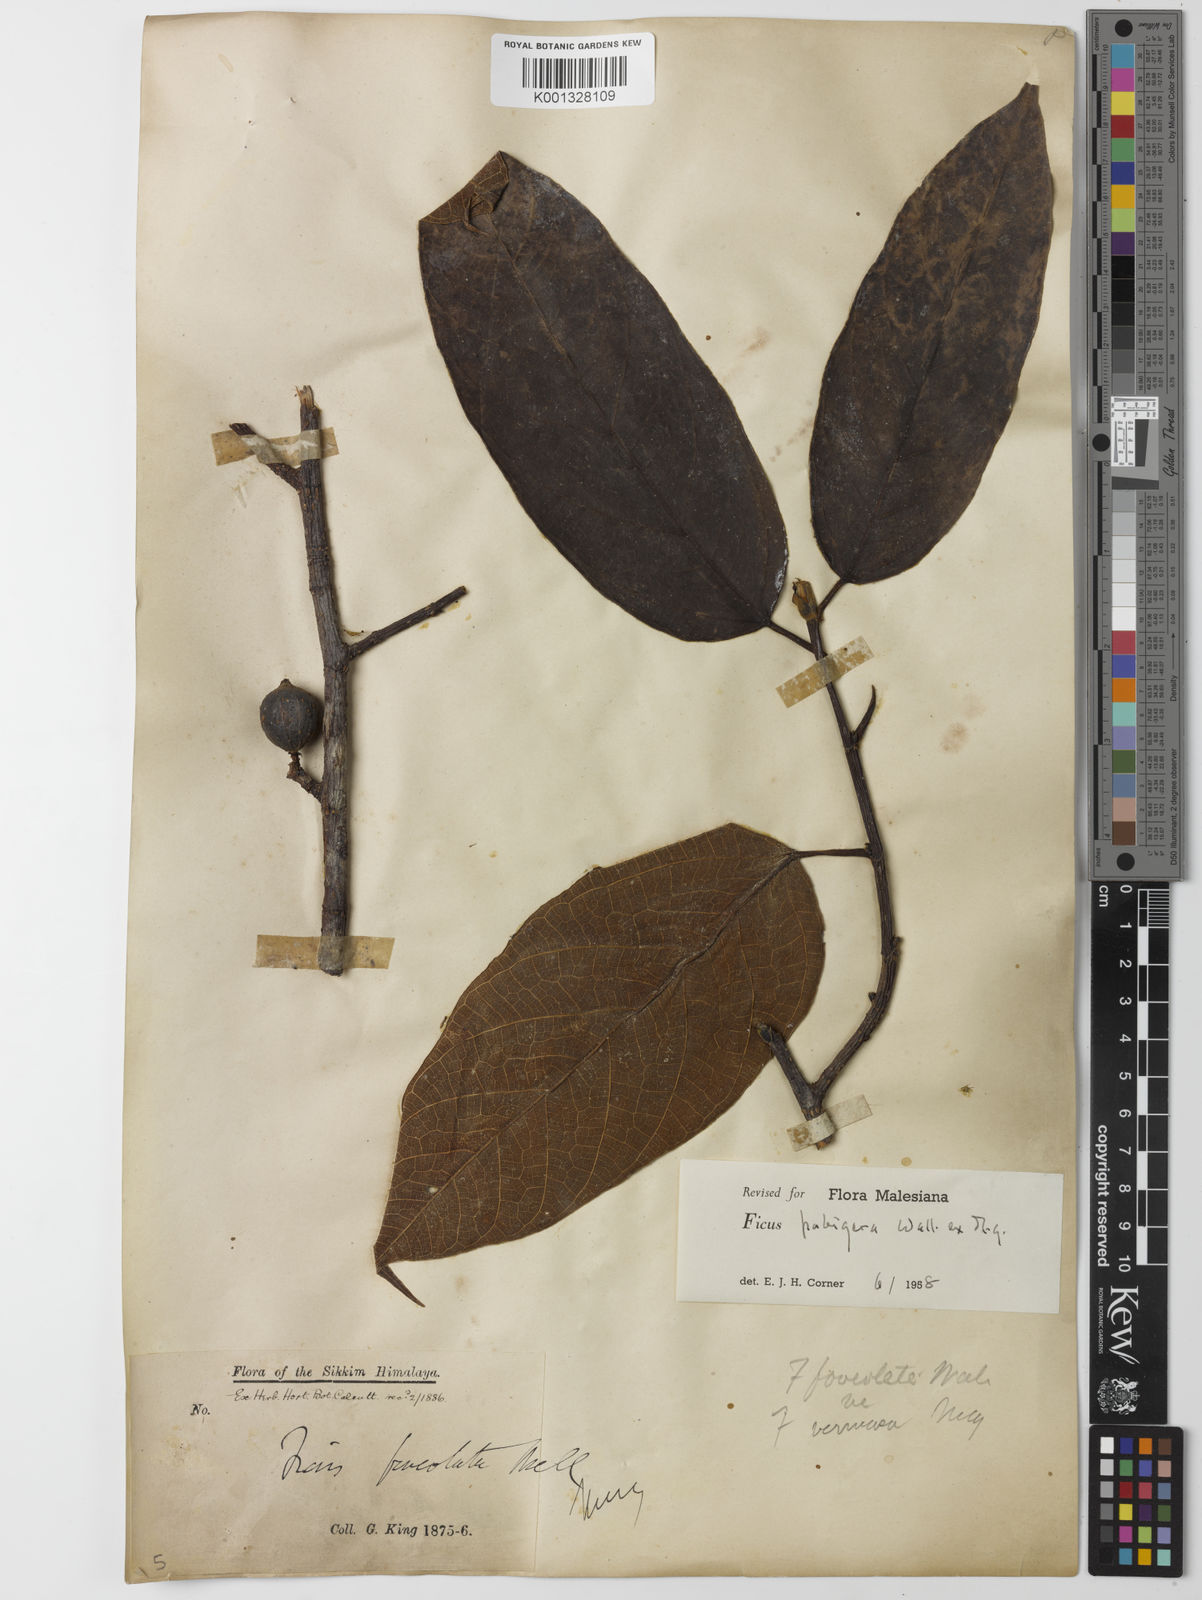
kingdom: Plantae
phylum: Tracheophyta
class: Magnoliopsida
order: Rosales
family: Moraceae
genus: Ficus
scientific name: Ficus
